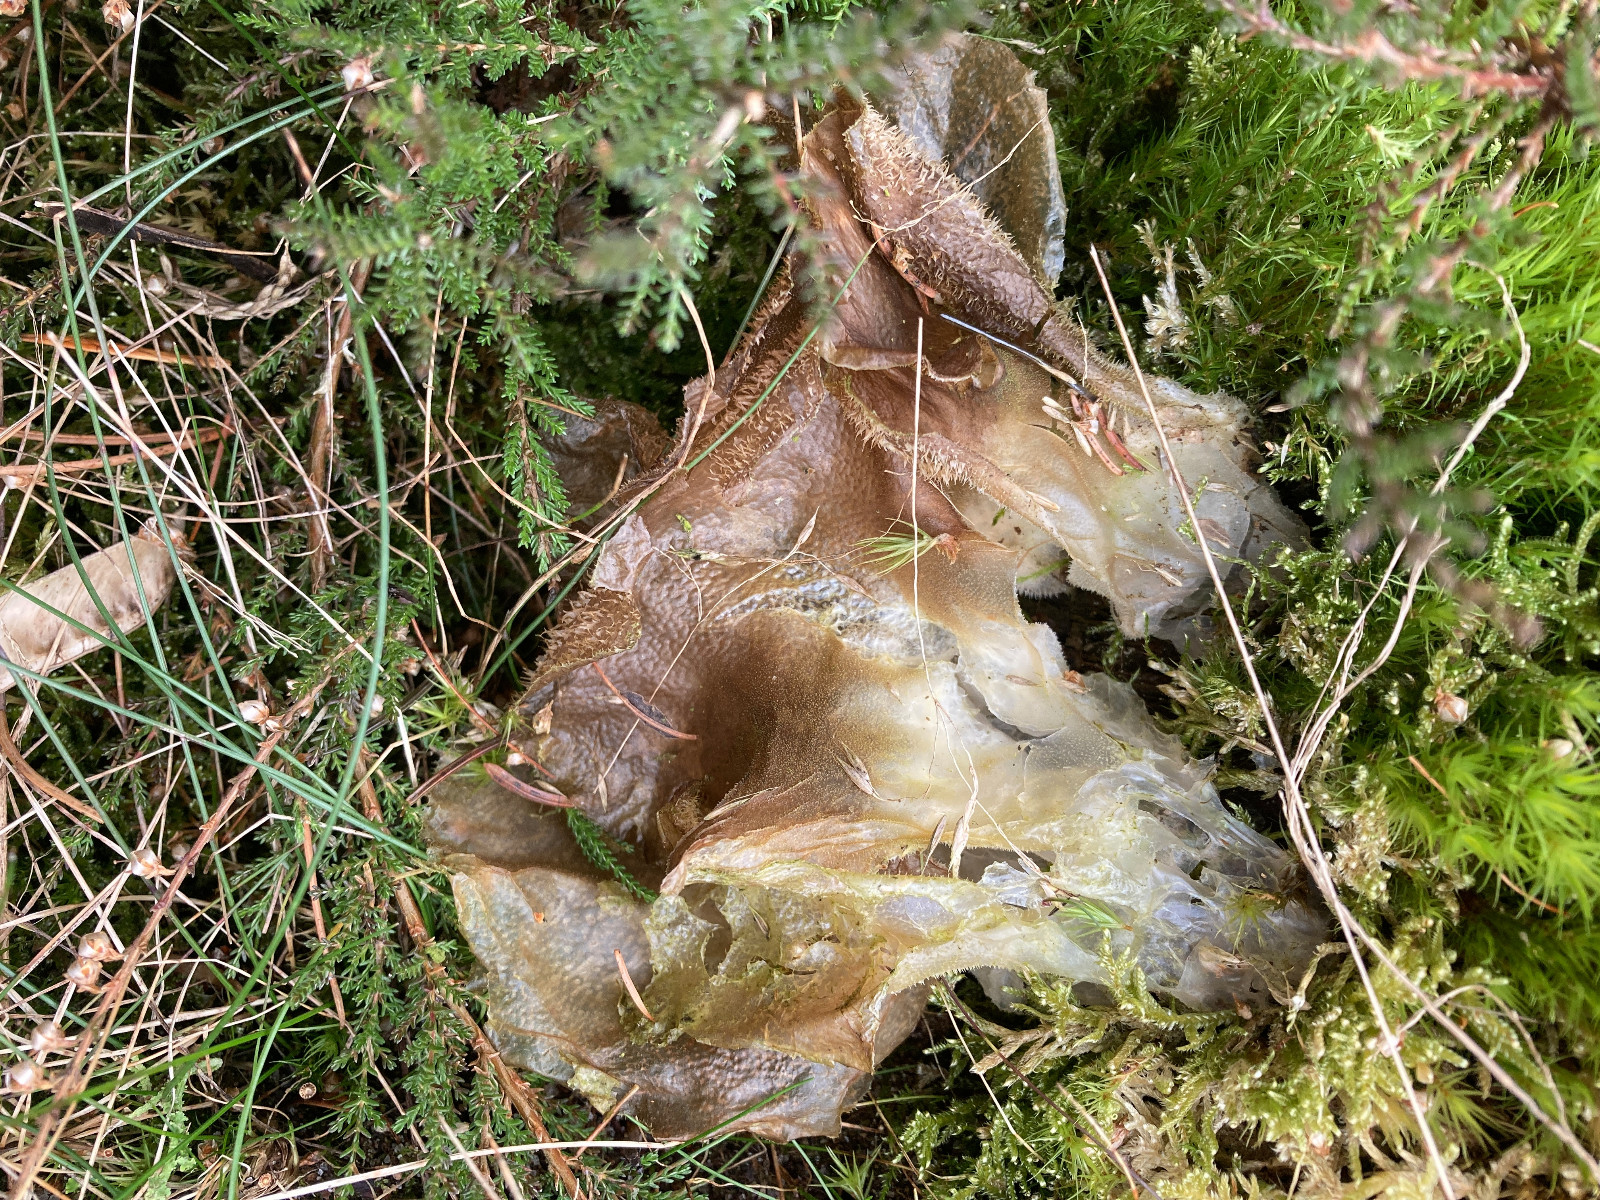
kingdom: Fungi
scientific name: Fungi
